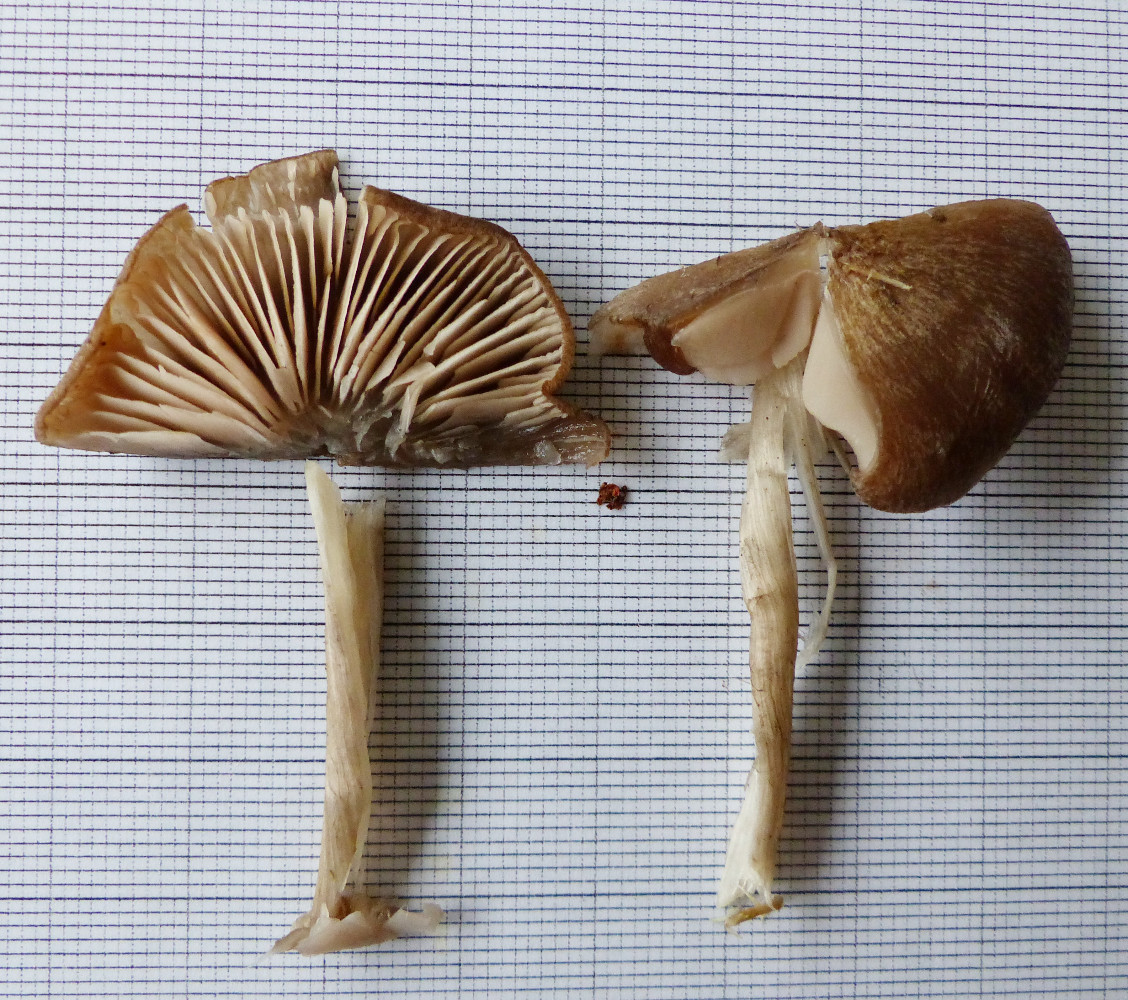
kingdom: Fungi
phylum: Basidiomycota
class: Agaricomycetes
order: Agaricales
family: Entolomataceae
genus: Entoloma
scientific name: Entoloma
